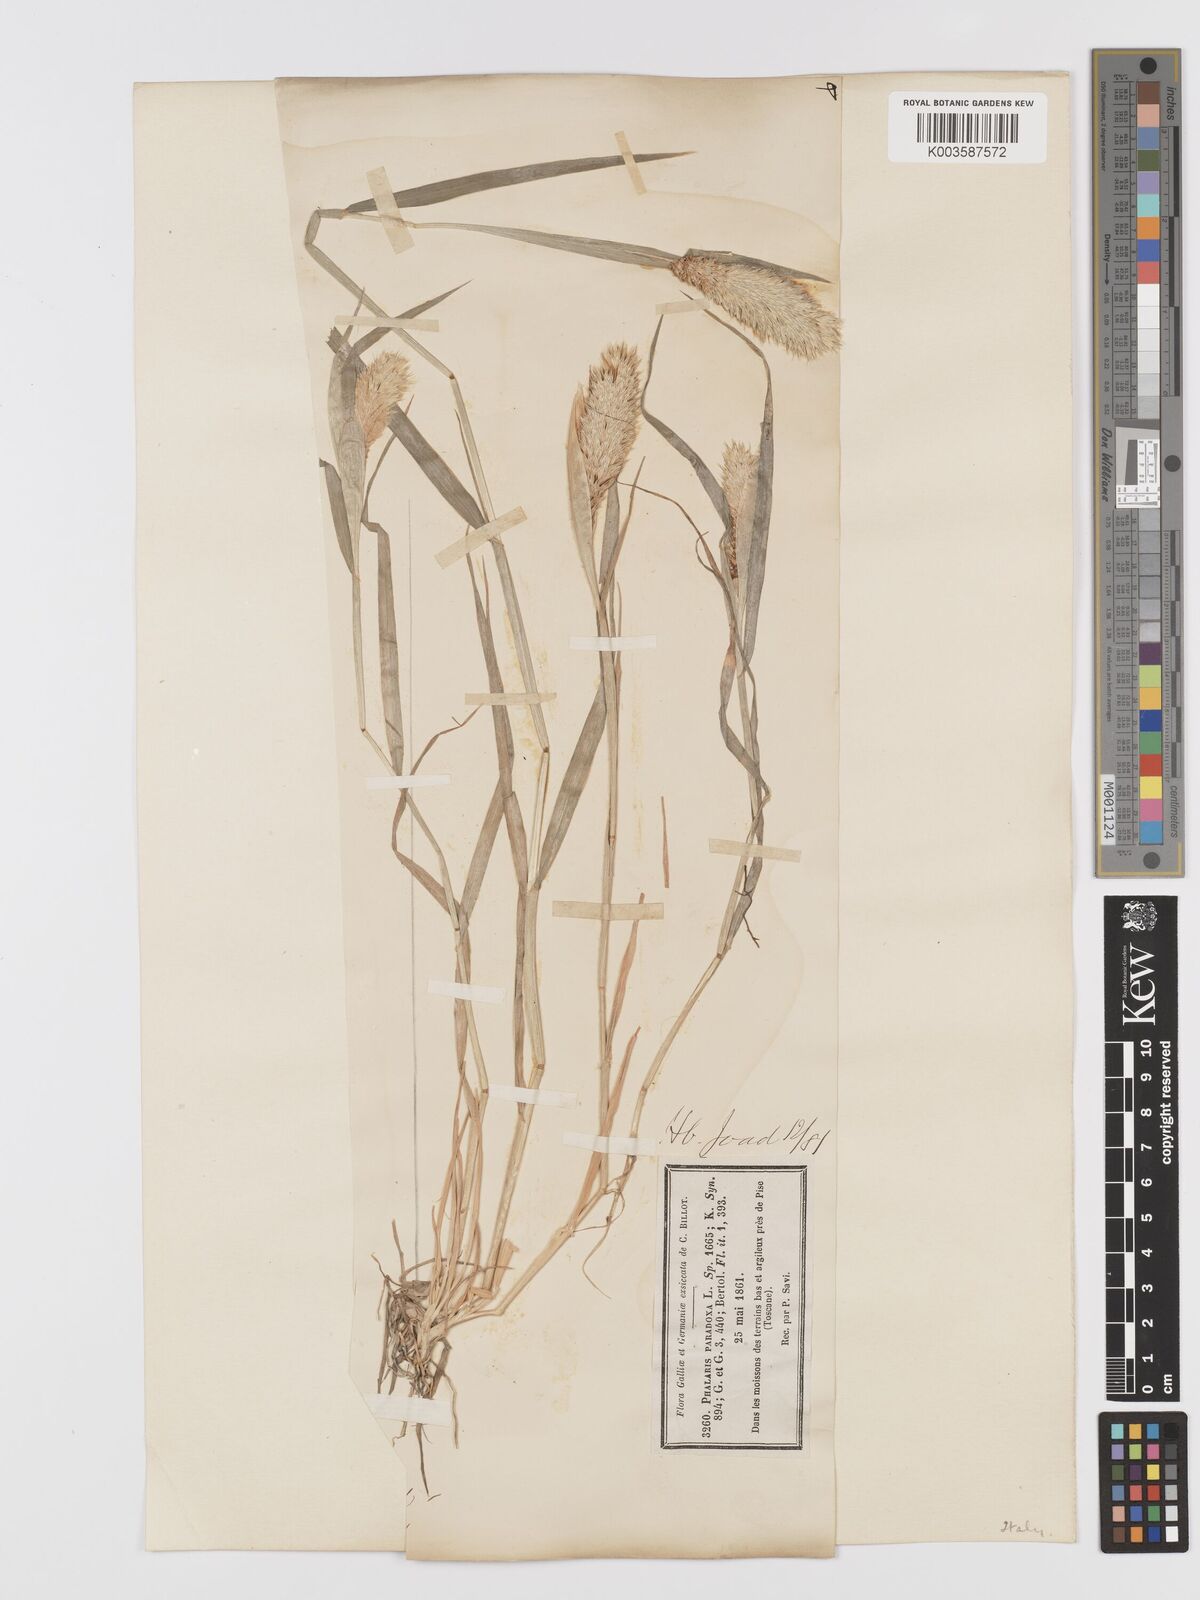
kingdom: Plantae
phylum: Tracheophyta
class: Liliopsida
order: Poales
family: Poaceae
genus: Phalaris
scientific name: Phalaris paradoxa
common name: Awned canary-grass
